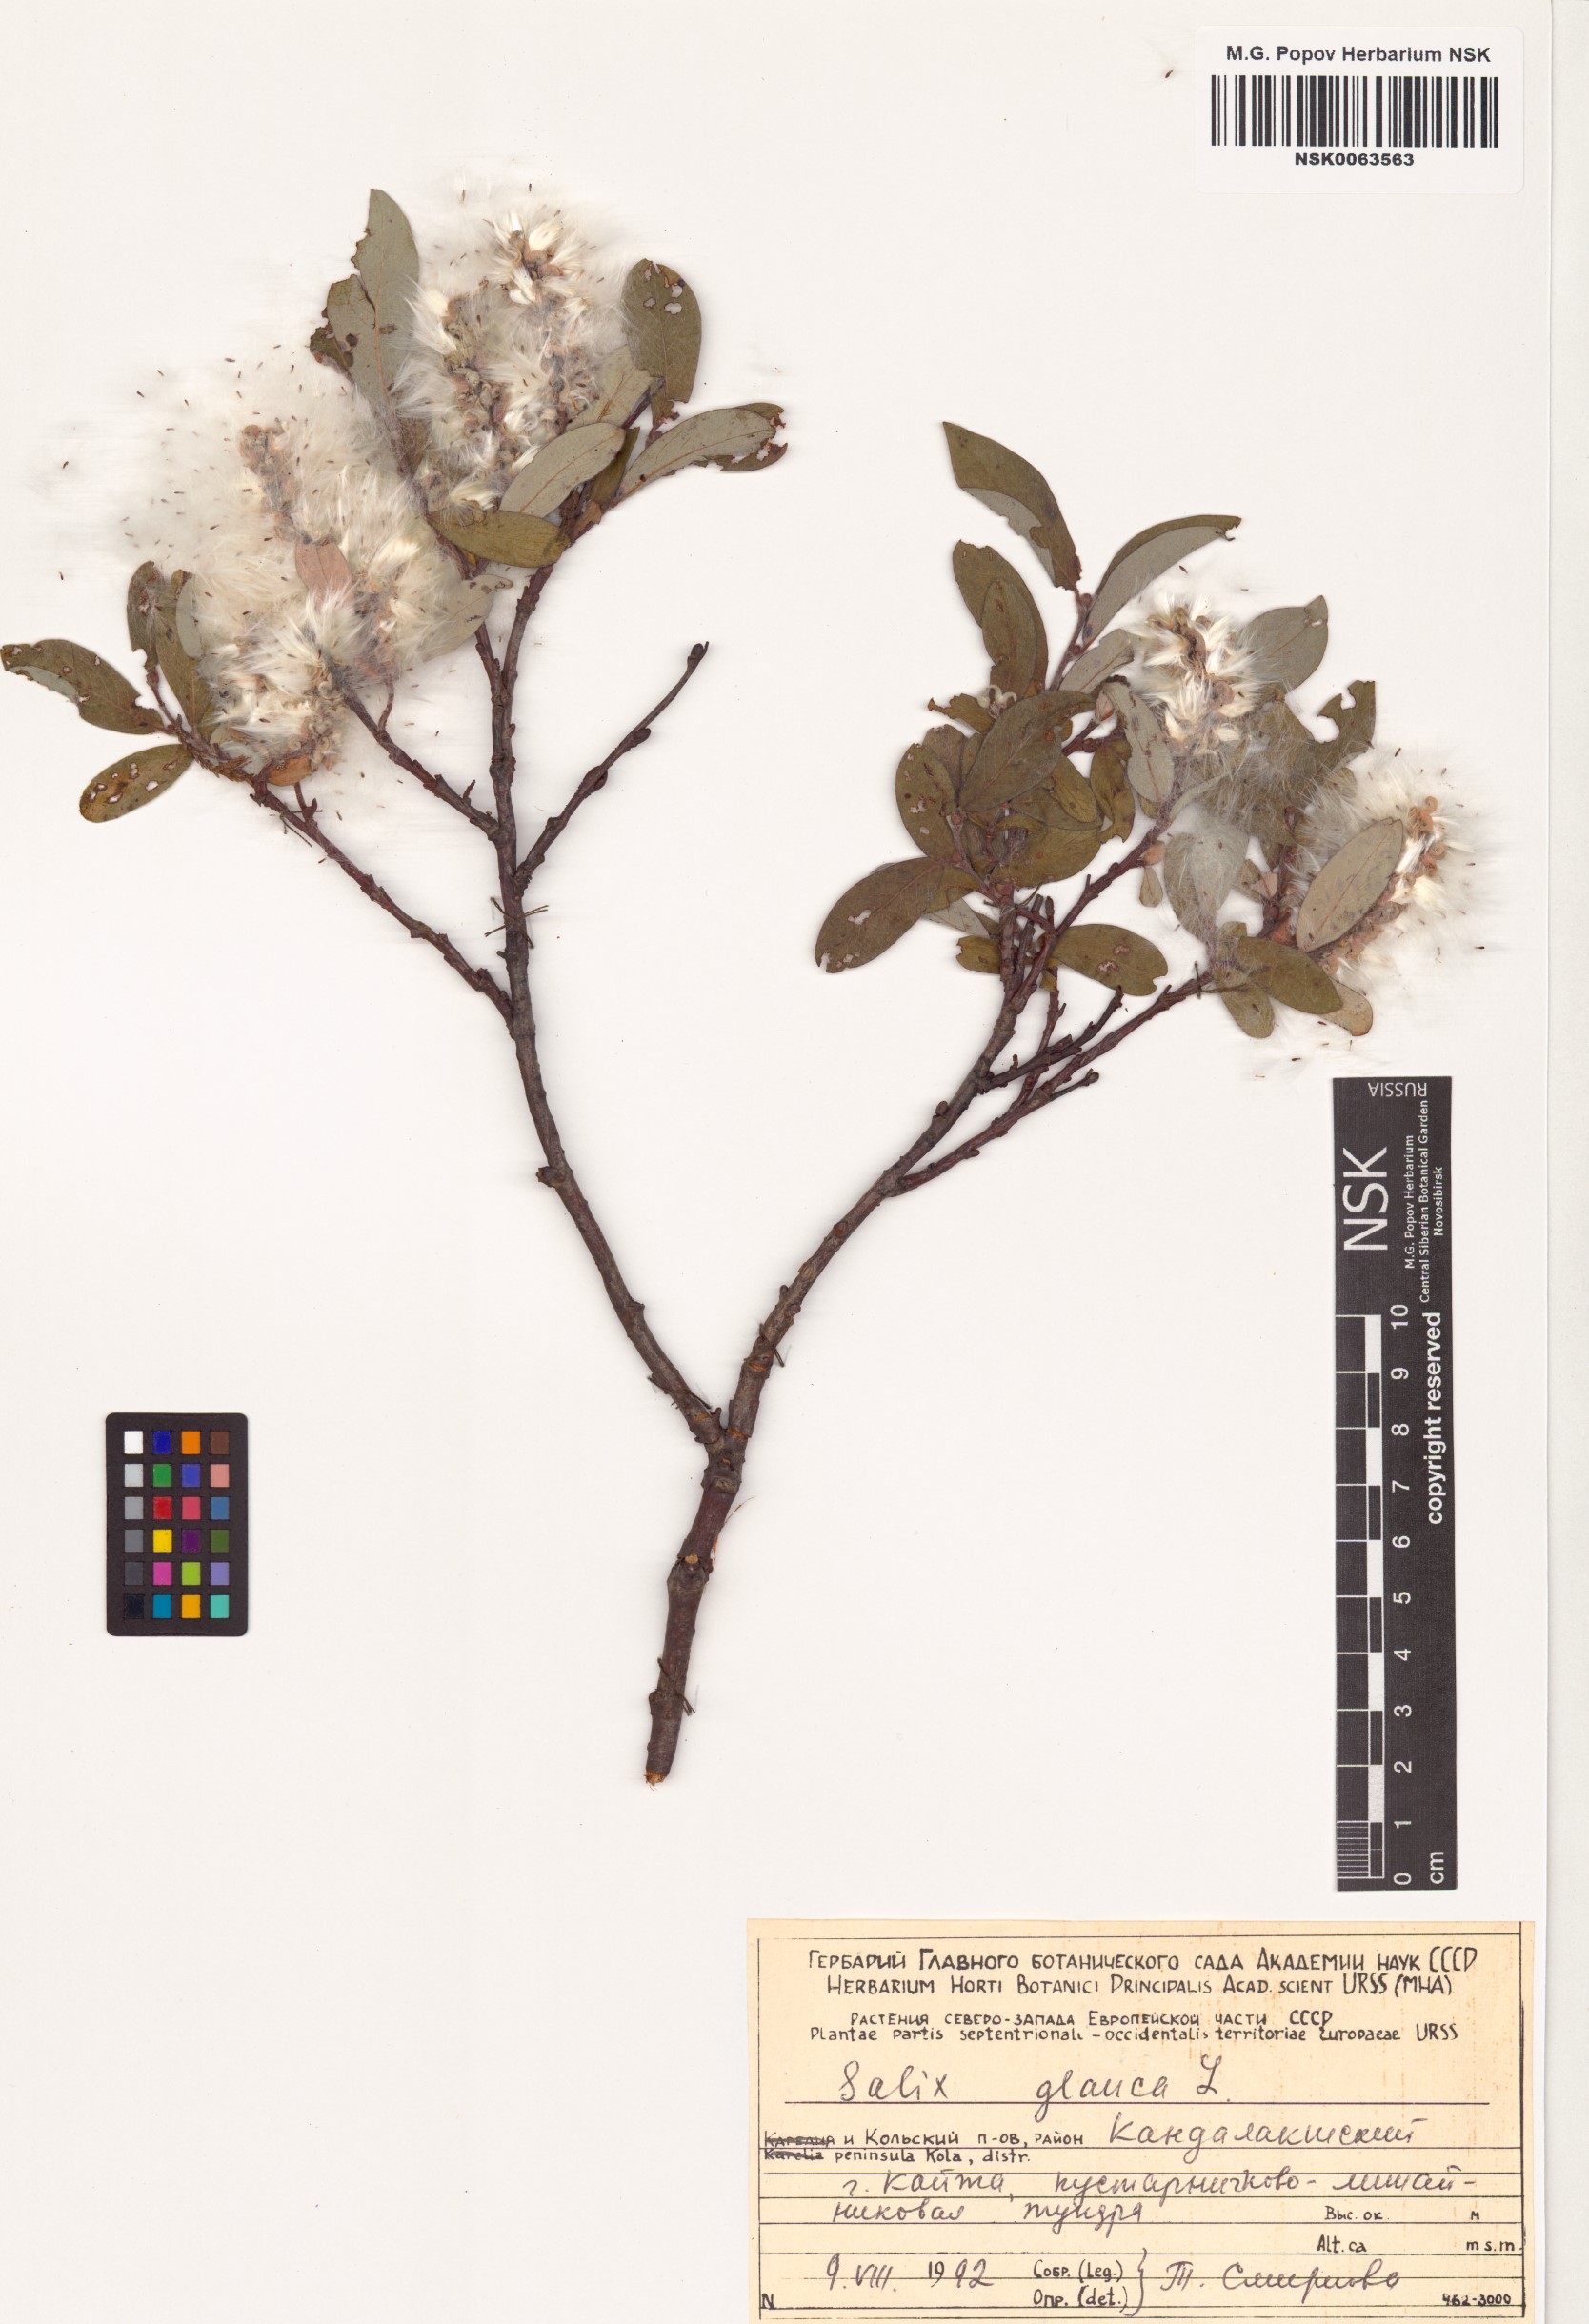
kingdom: Plantae
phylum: Tracheophyta
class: Magnoliopsida
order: Malpighiales
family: Salicaceae
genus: Salix
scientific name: Salix glauca
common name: Glaucous willow
